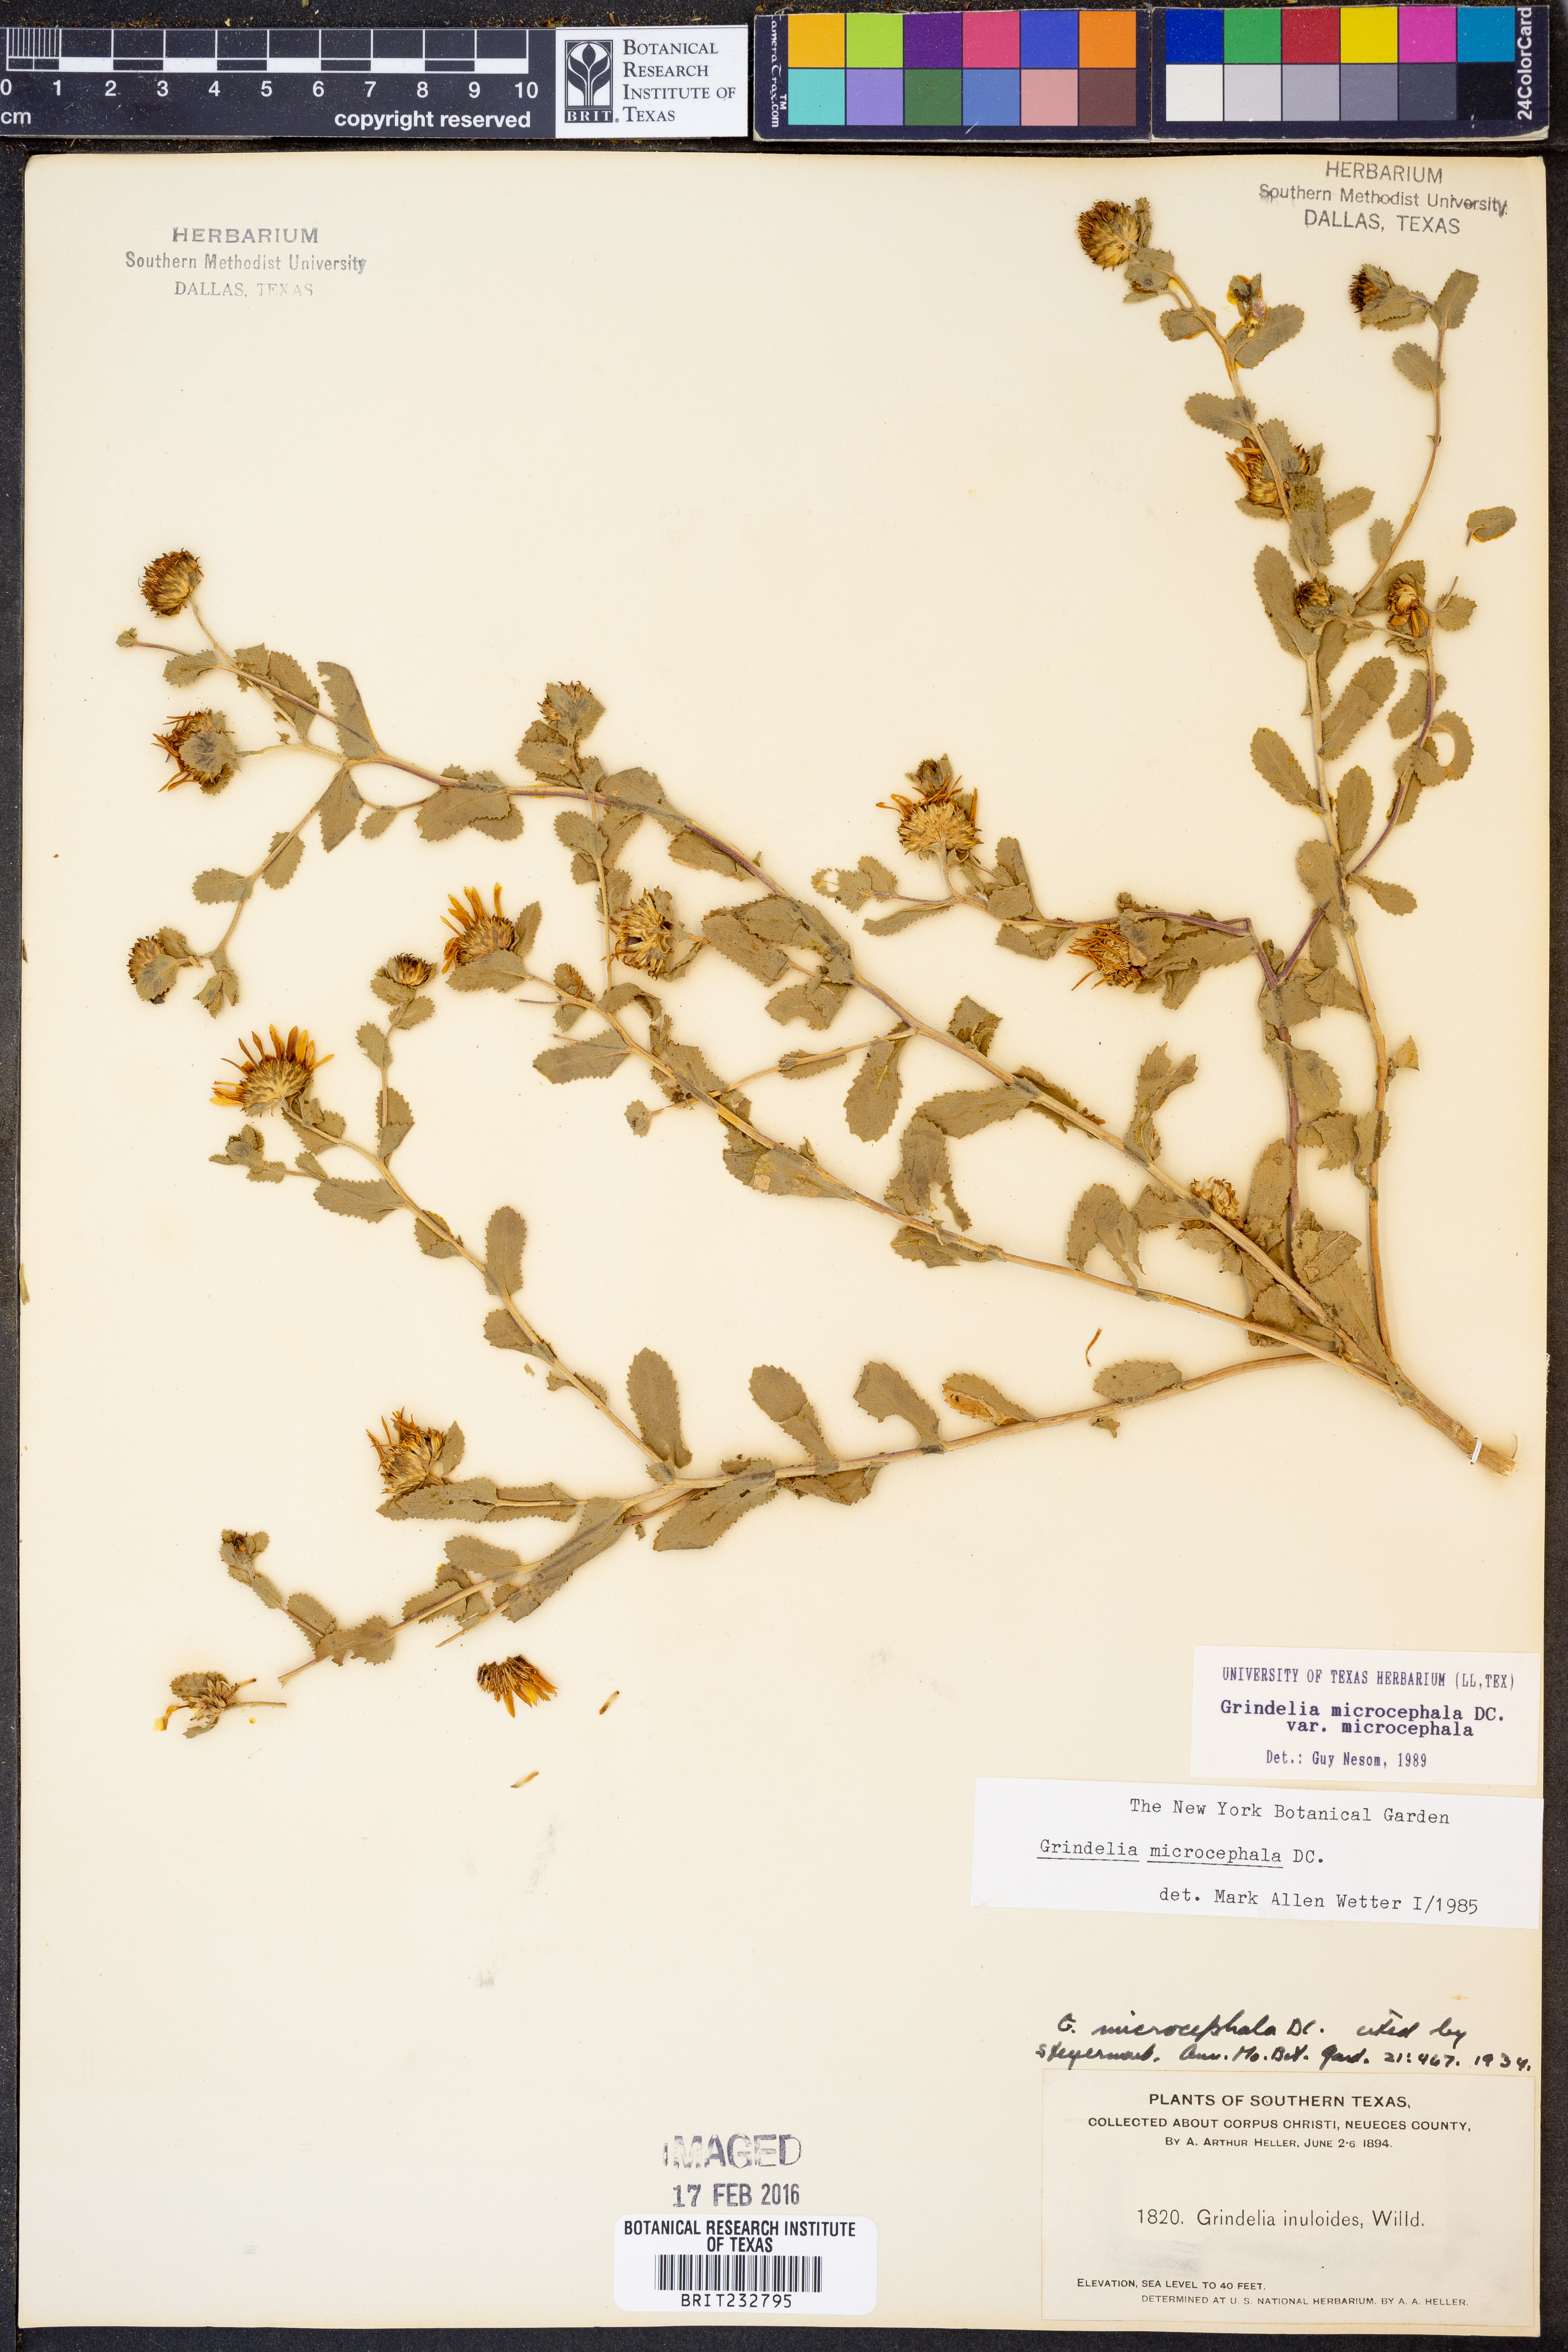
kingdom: Plantae
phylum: Tracheophyta
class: Magnoliopsida
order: Asterales
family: Asteraceae
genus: Grindelia
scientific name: Grindelia microcephala
